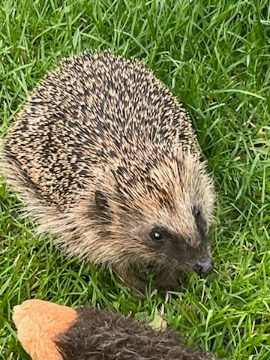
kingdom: Animalia
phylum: Chordata
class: Mammalia
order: Erinaceomorpha
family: Erinaceidae
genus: Erinaceus
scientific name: Erinaceus europaeus
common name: Pindsvin
